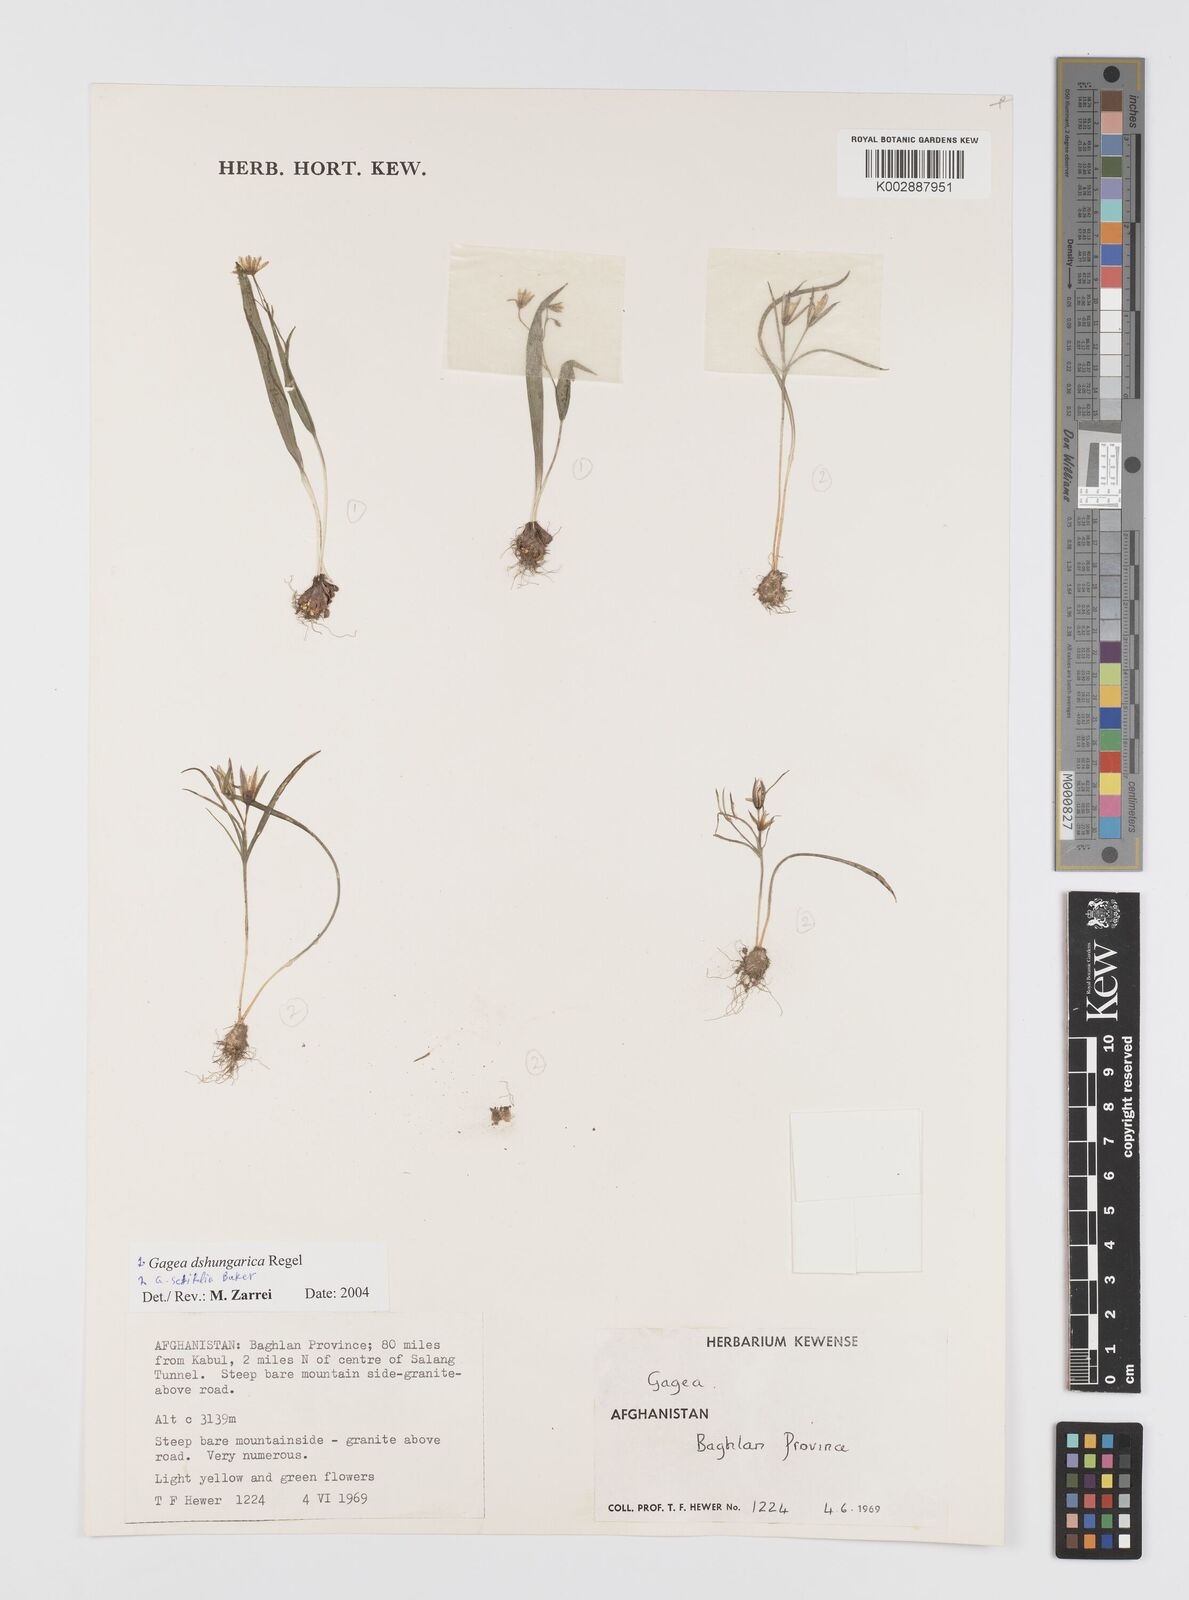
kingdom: Plantae
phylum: Tracheophyta
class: Liliopsida
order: Liliales
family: Liliaceae
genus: Gagea
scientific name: Gagea dschungarica
